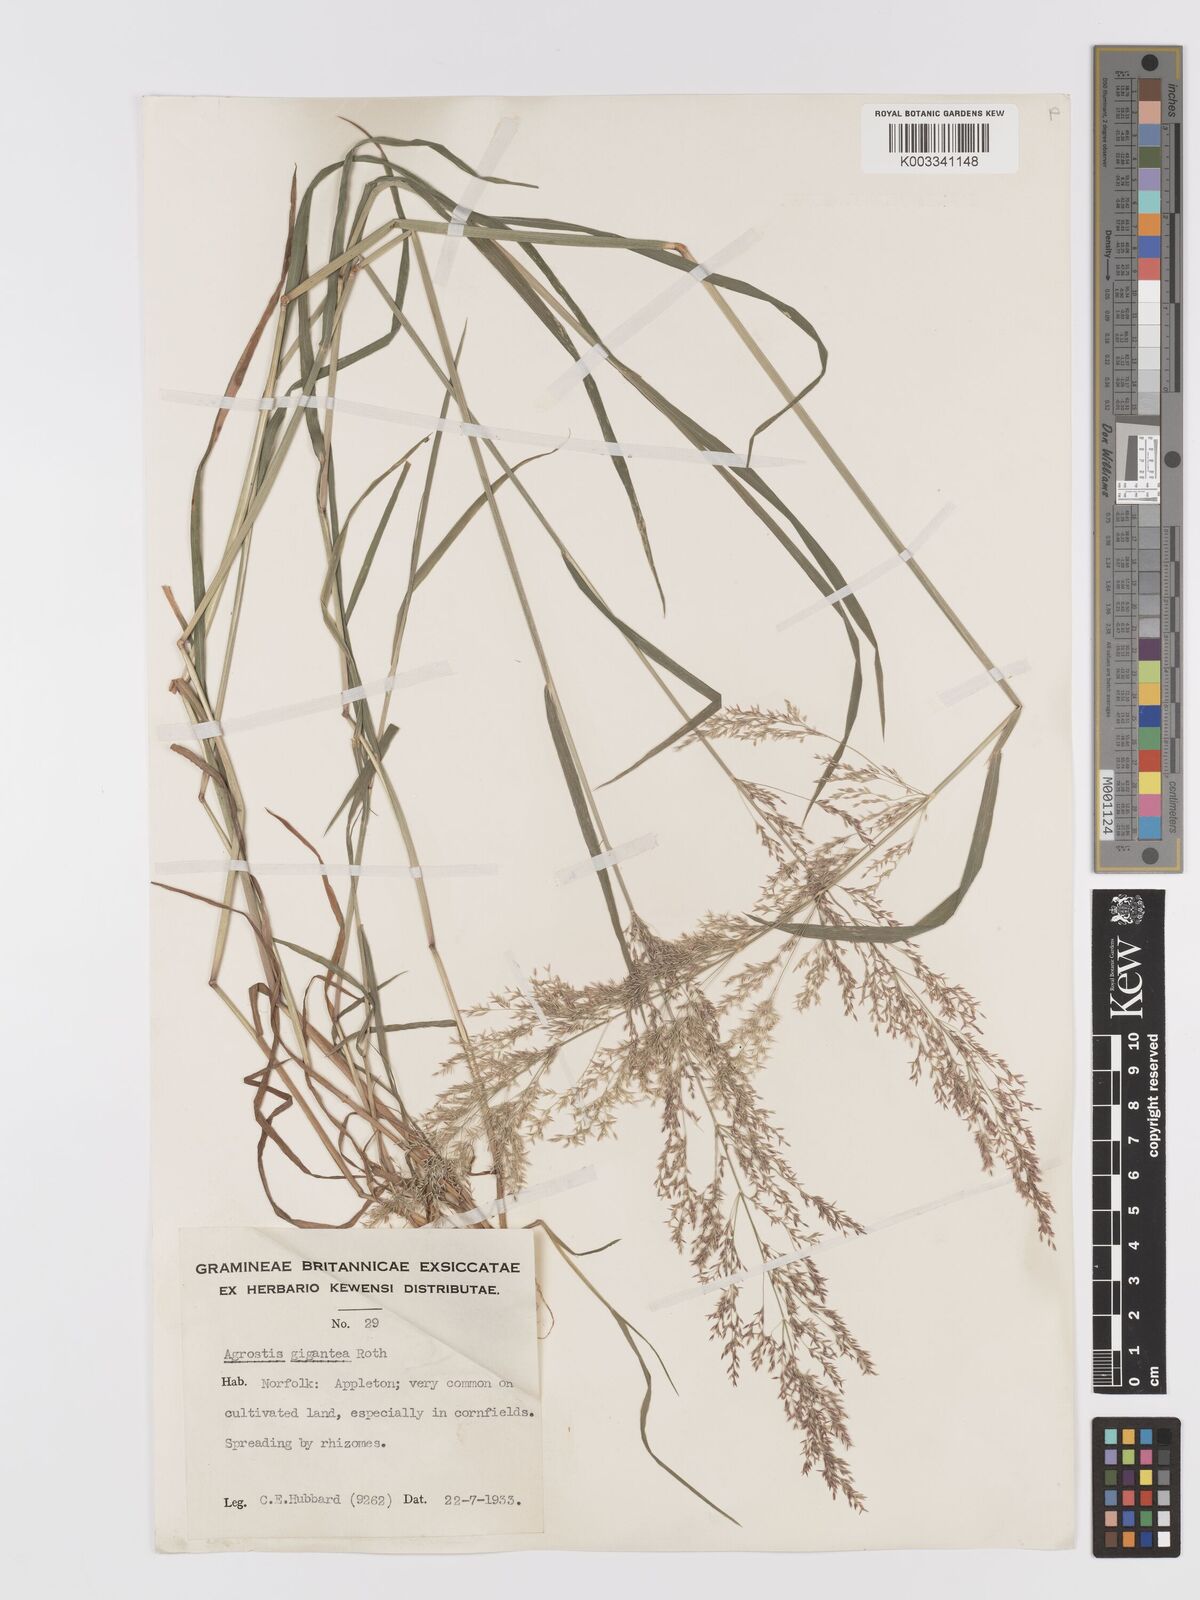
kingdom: Plantae
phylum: Tracheophyta
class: Liliopsida
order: Poales
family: Poaceae
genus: Agrostis
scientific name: Agrostis gigantea
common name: Black bent
